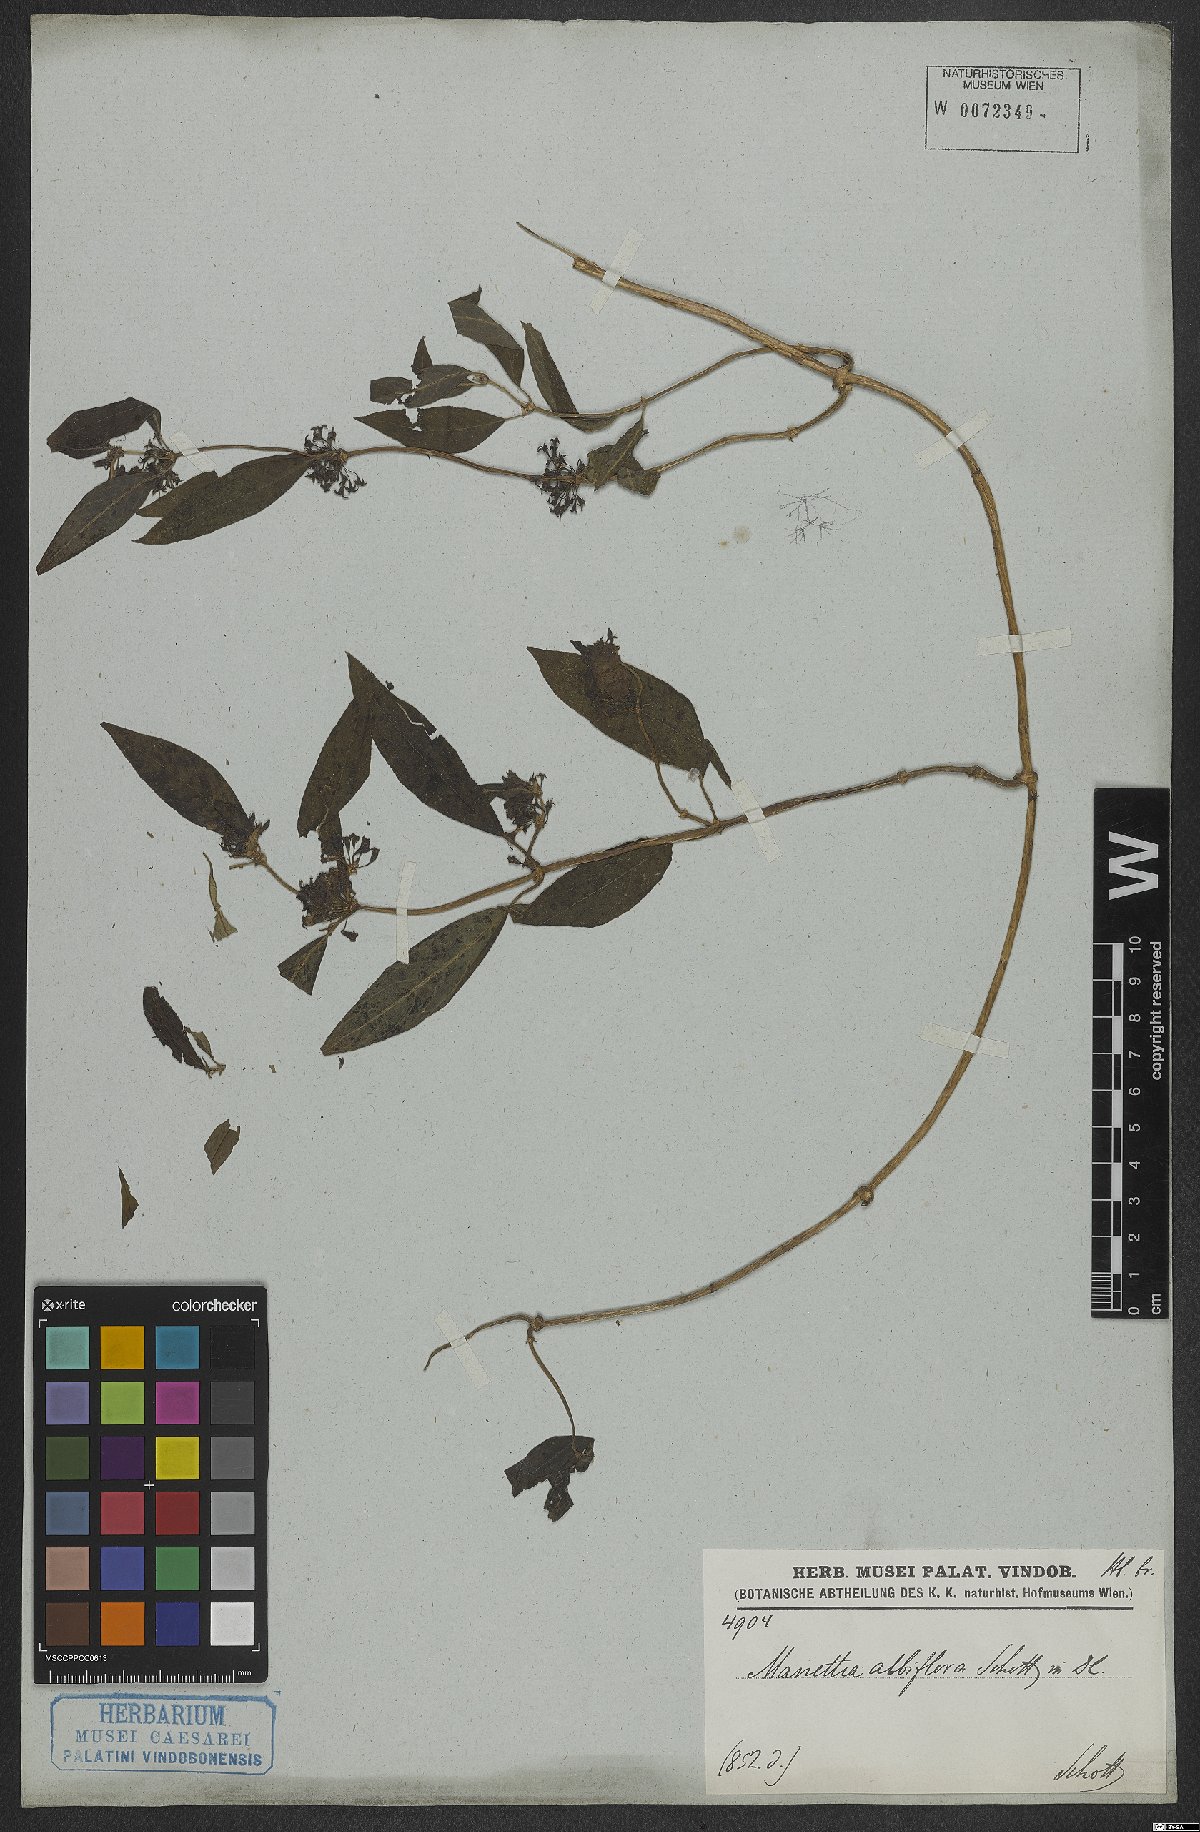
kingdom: Plantae
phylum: Tracheophyta
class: Magnoliopsida
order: Gentianales
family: Rubiaceae
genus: Manettia
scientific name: Manettia congesta
